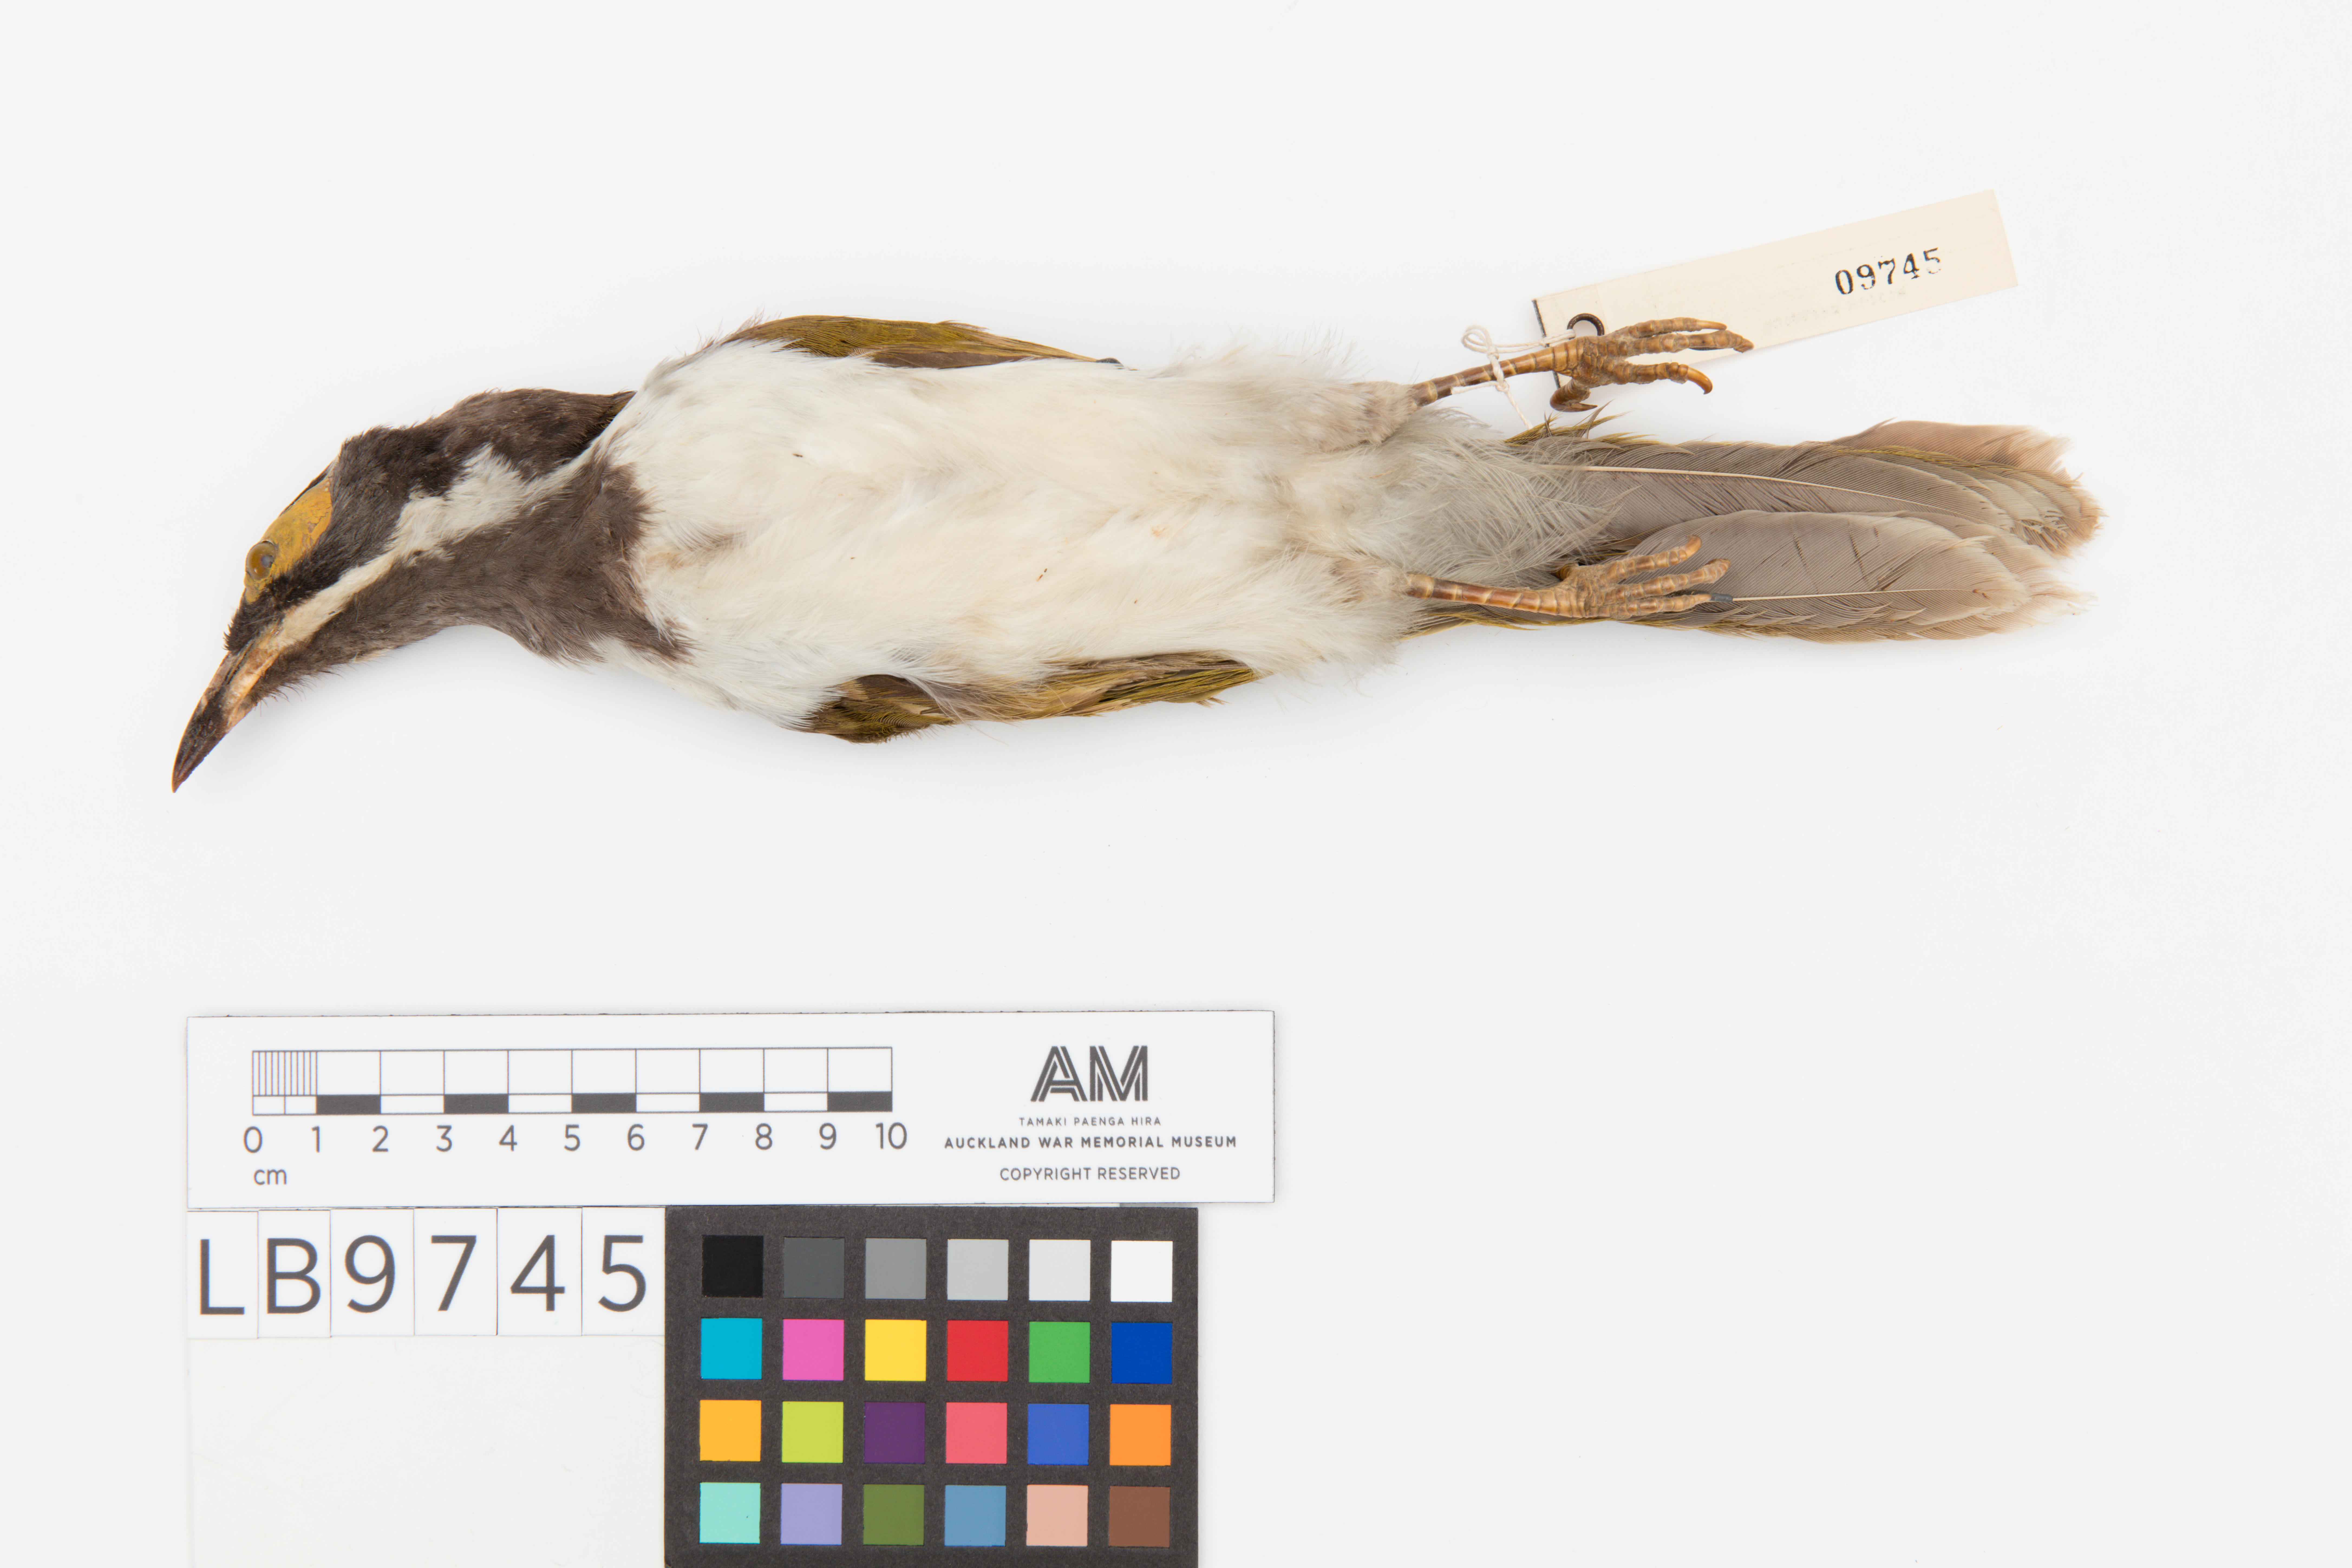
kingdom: Animalia
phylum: Chordata
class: Aves
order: Passeriformes
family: Meliphagidae
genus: Entomyzon
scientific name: Entomyzon cyanotis
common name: Blue-faced honeyeater
